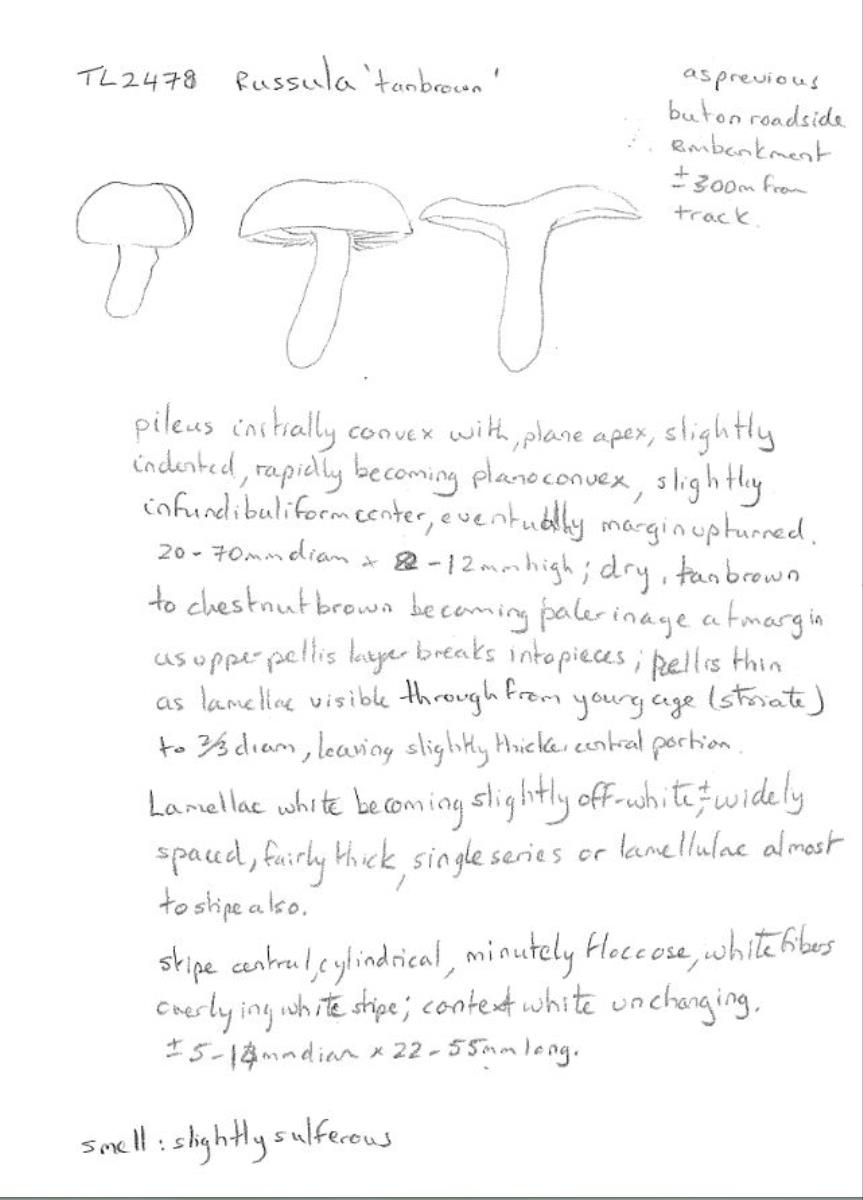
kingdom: Fungi
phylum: Basidiomycota
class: Agaricomycetes
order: Russulales
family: Russulaceae
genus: Russula
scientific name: Russula
